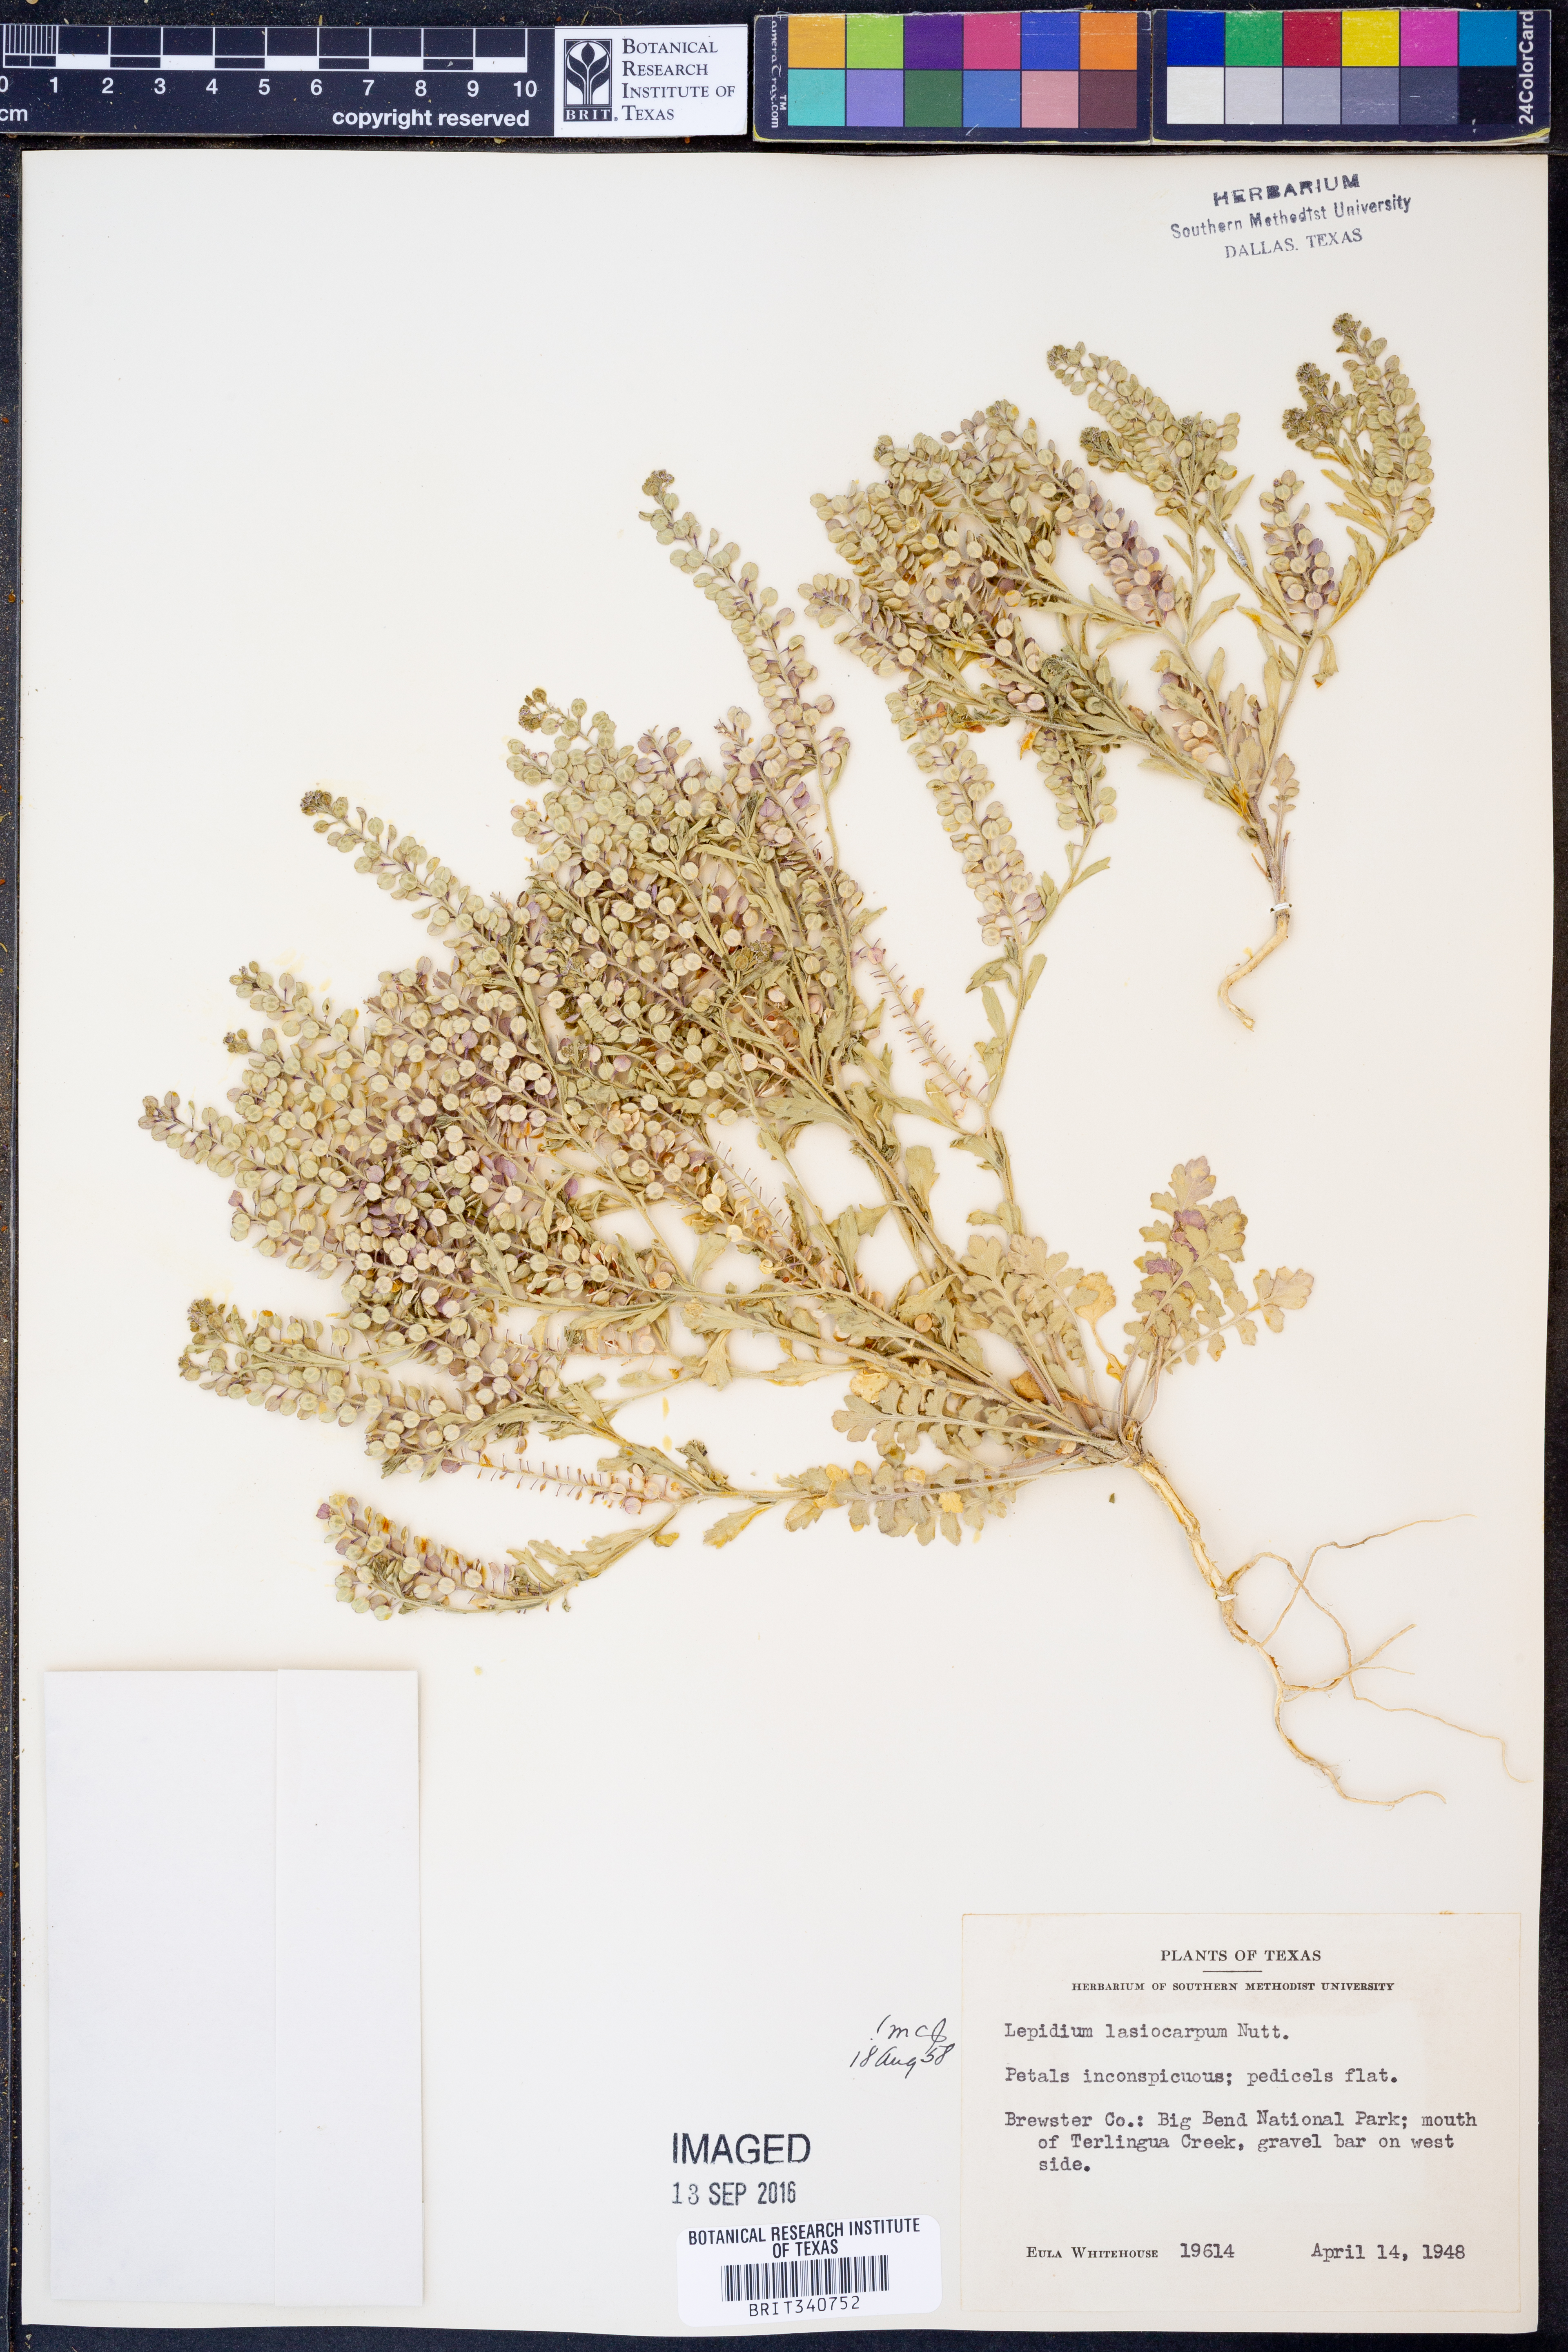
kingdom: Plantae
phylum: Tracheophyta
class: Magnoliopsida
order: Brassicales
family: Brassicaceae
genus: Lepidium
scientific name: Lepidium lasiocarpum
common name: Hairy-pod pepperwort
